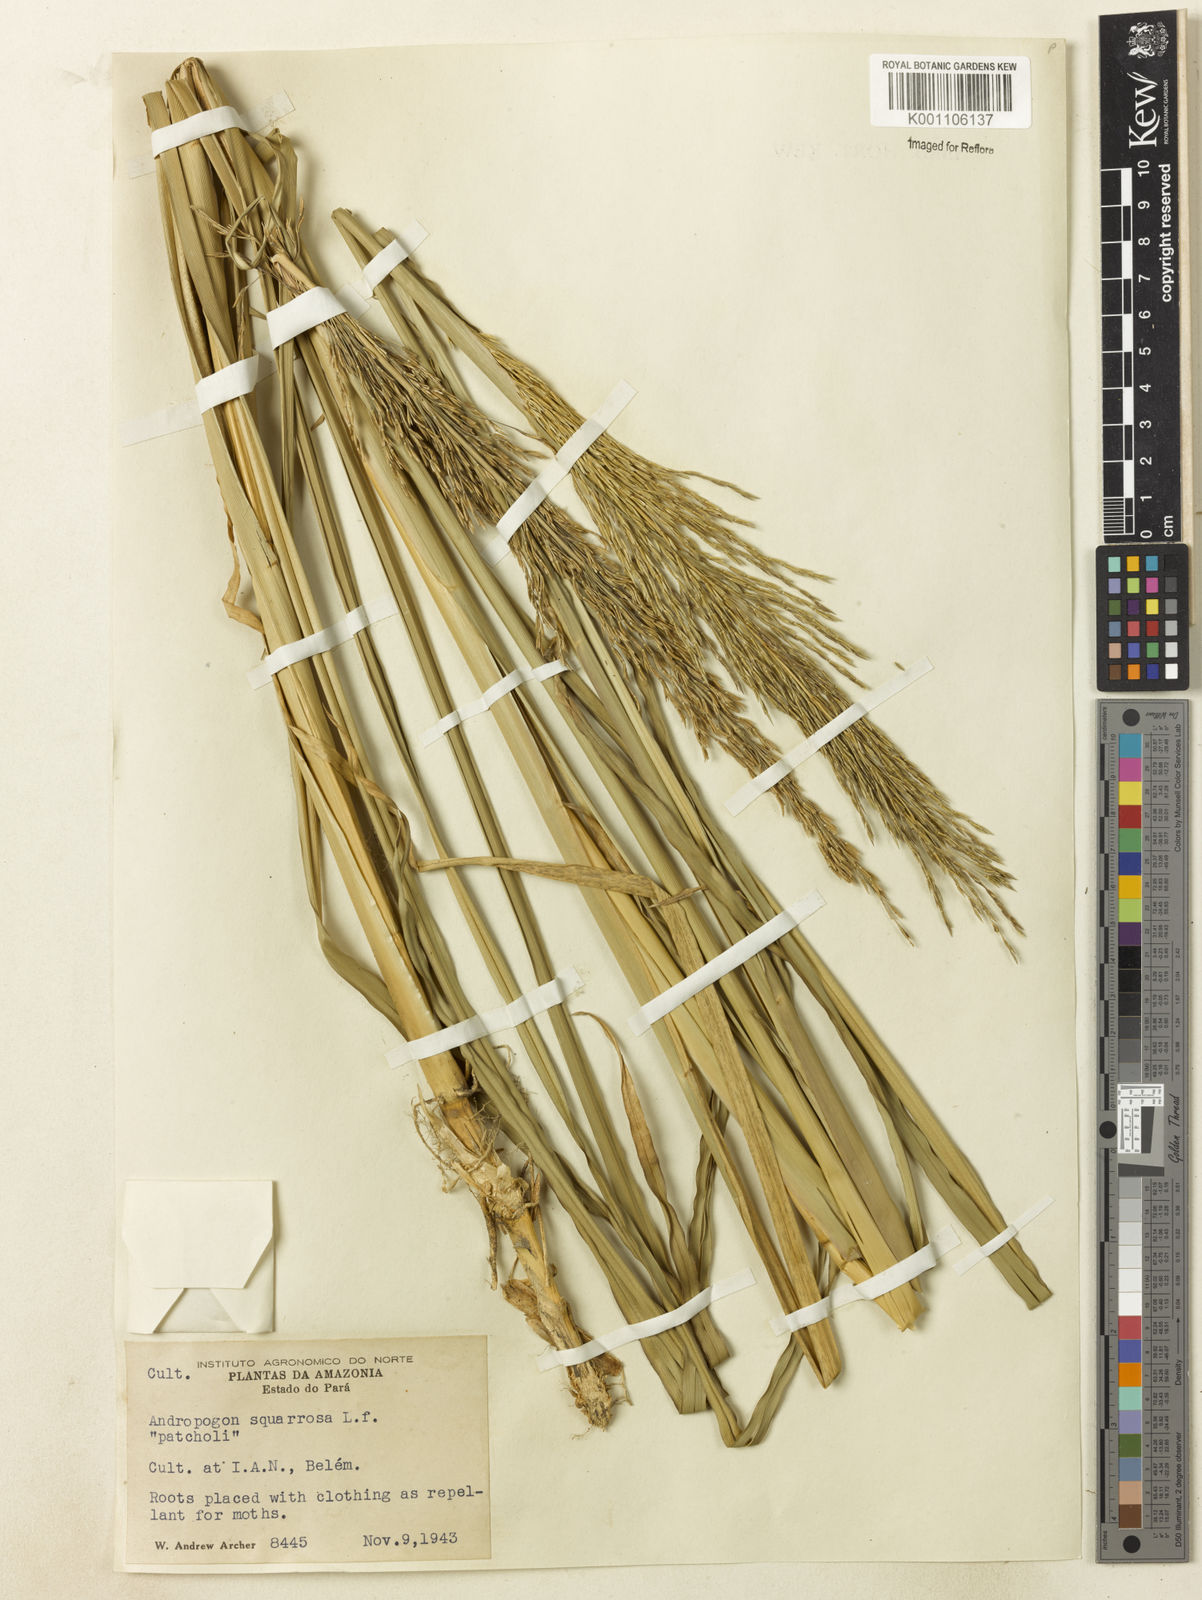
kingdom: Plantae
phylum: Tracheophyta
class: Liliopsida
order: Poales
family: Poaceae
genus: Chrysopogon
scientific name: Chrysopogon zizanioides
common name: False beardgrass
